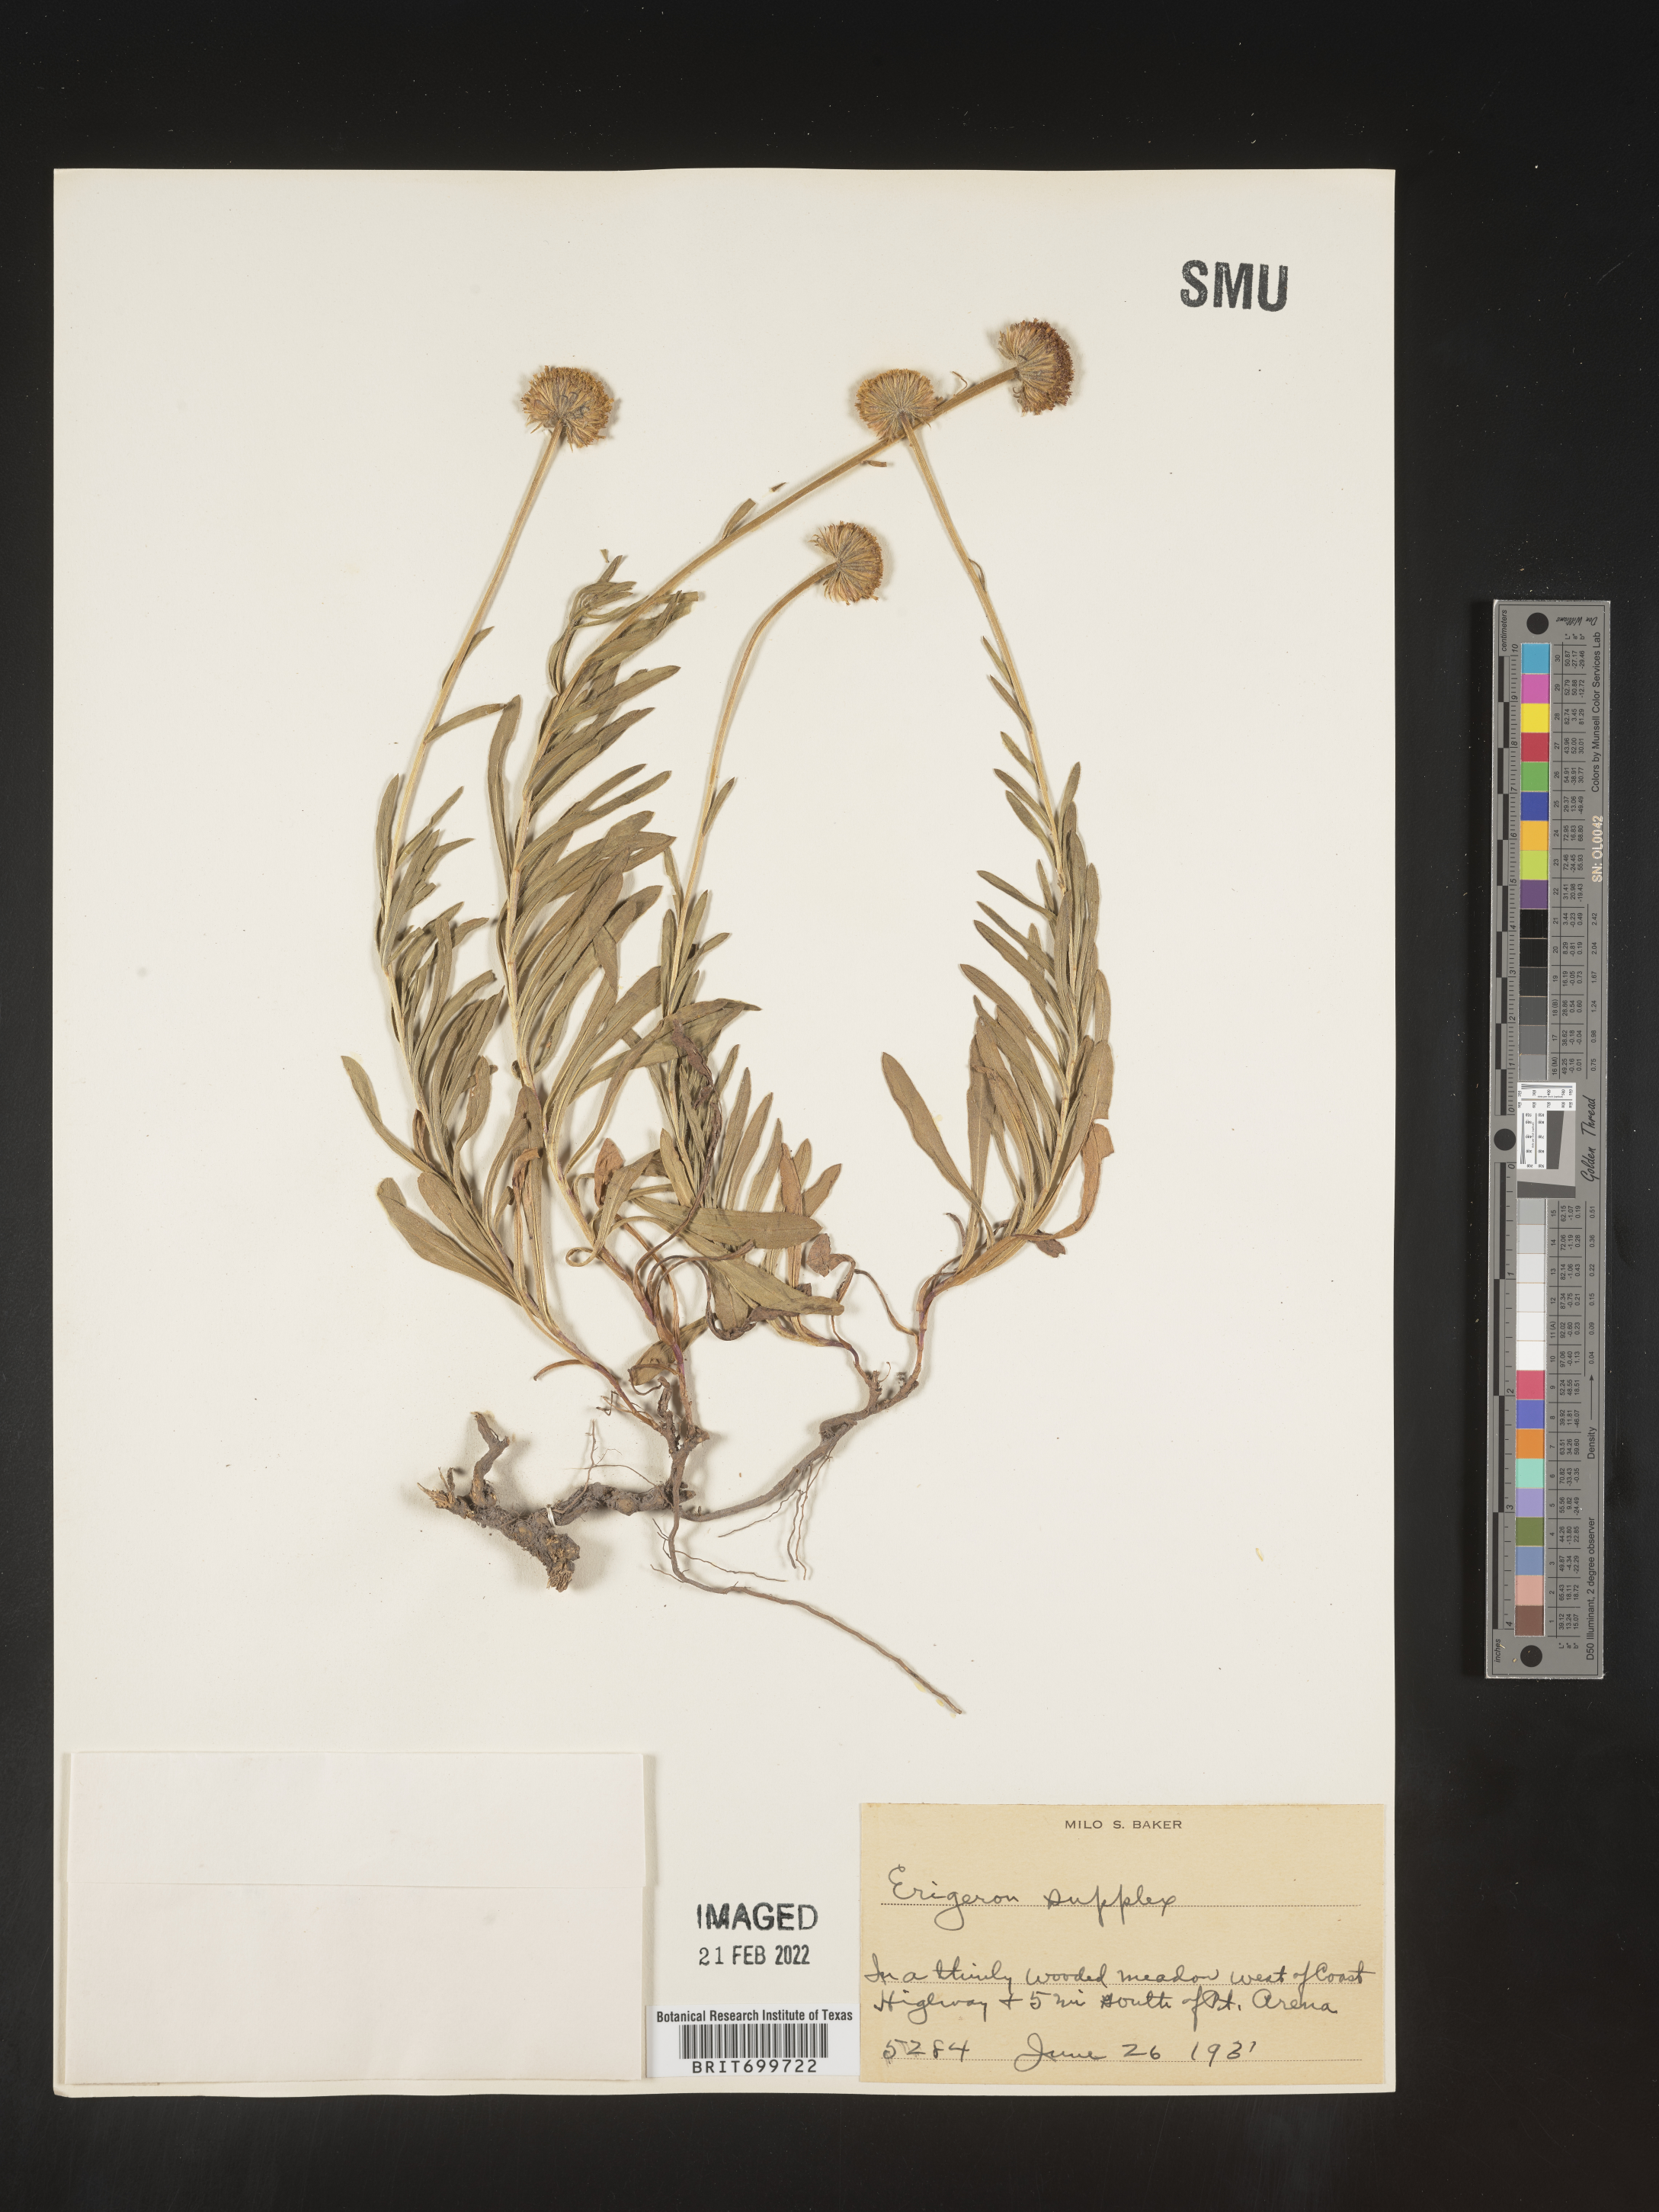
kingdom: Plantae
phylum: Tracheophyta
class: Magnoliopsida
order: Asterales
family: Asteraceae
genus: Erigeron
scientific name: Erigeron supplex
